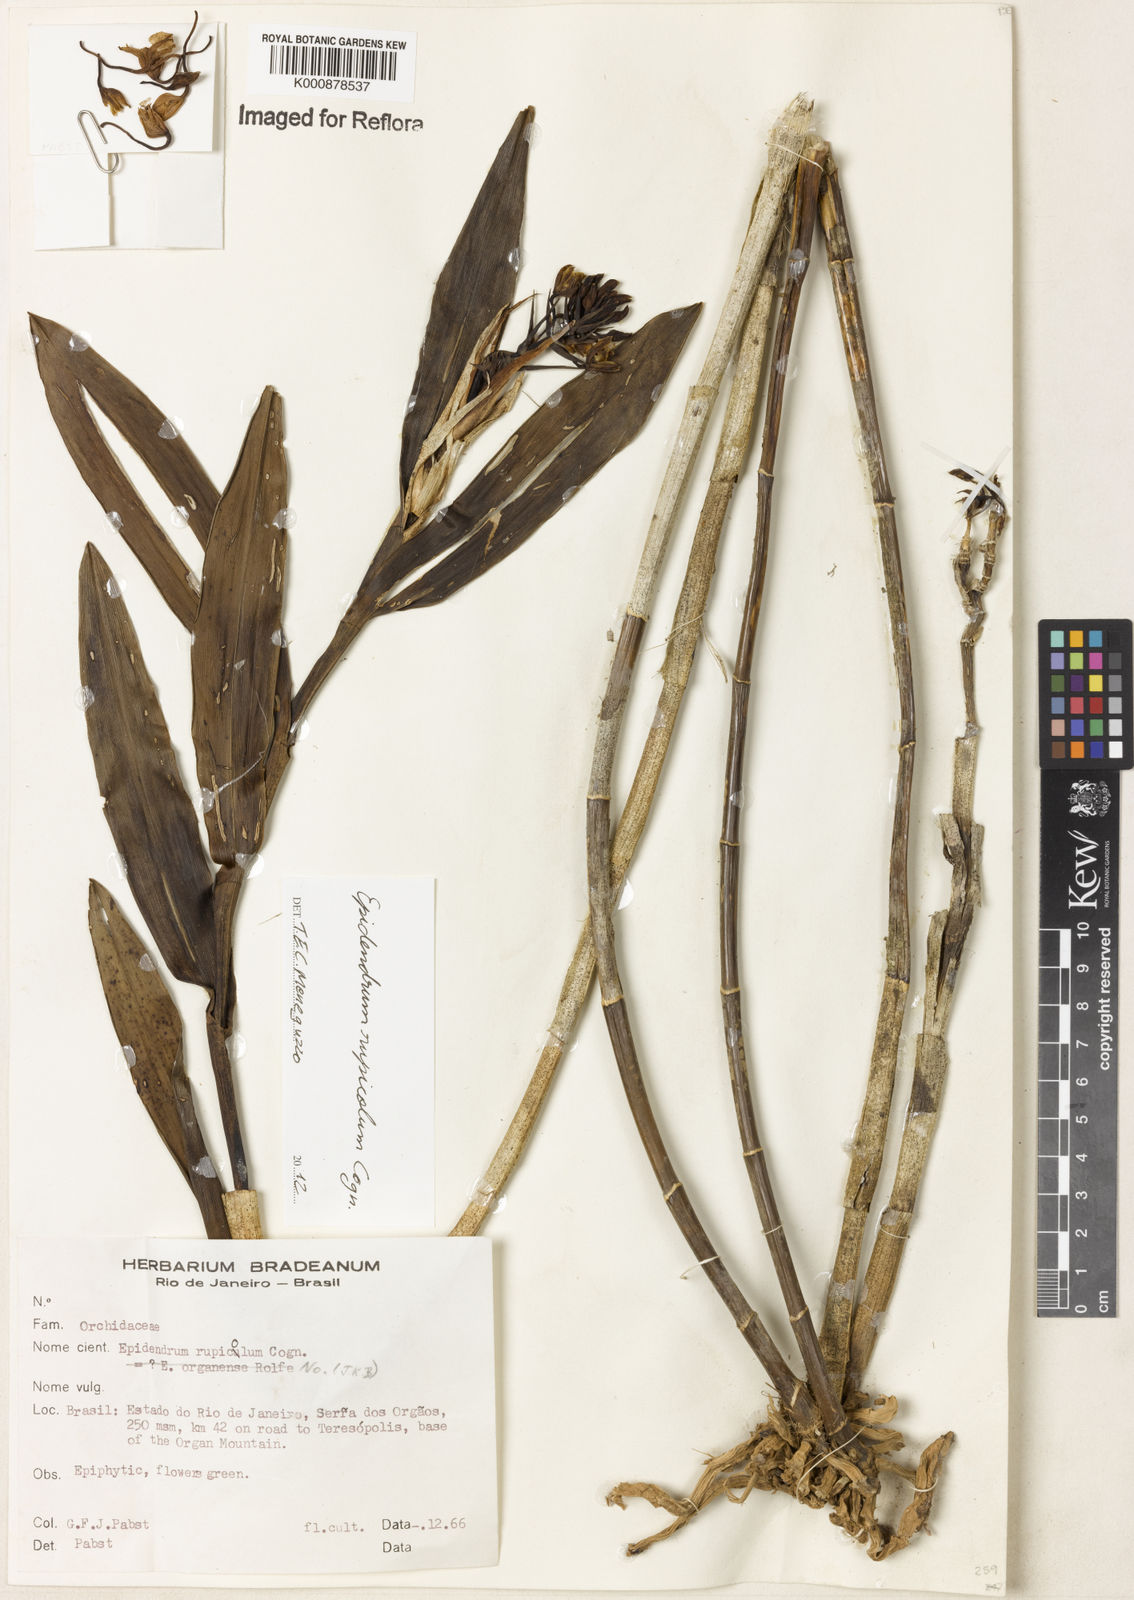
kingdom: Plantae
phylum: Tracheophyta
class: Liliopsida
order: Asparagales
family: Orchidaceae
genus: Epidendrum
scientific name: Epidendrum rupicola
